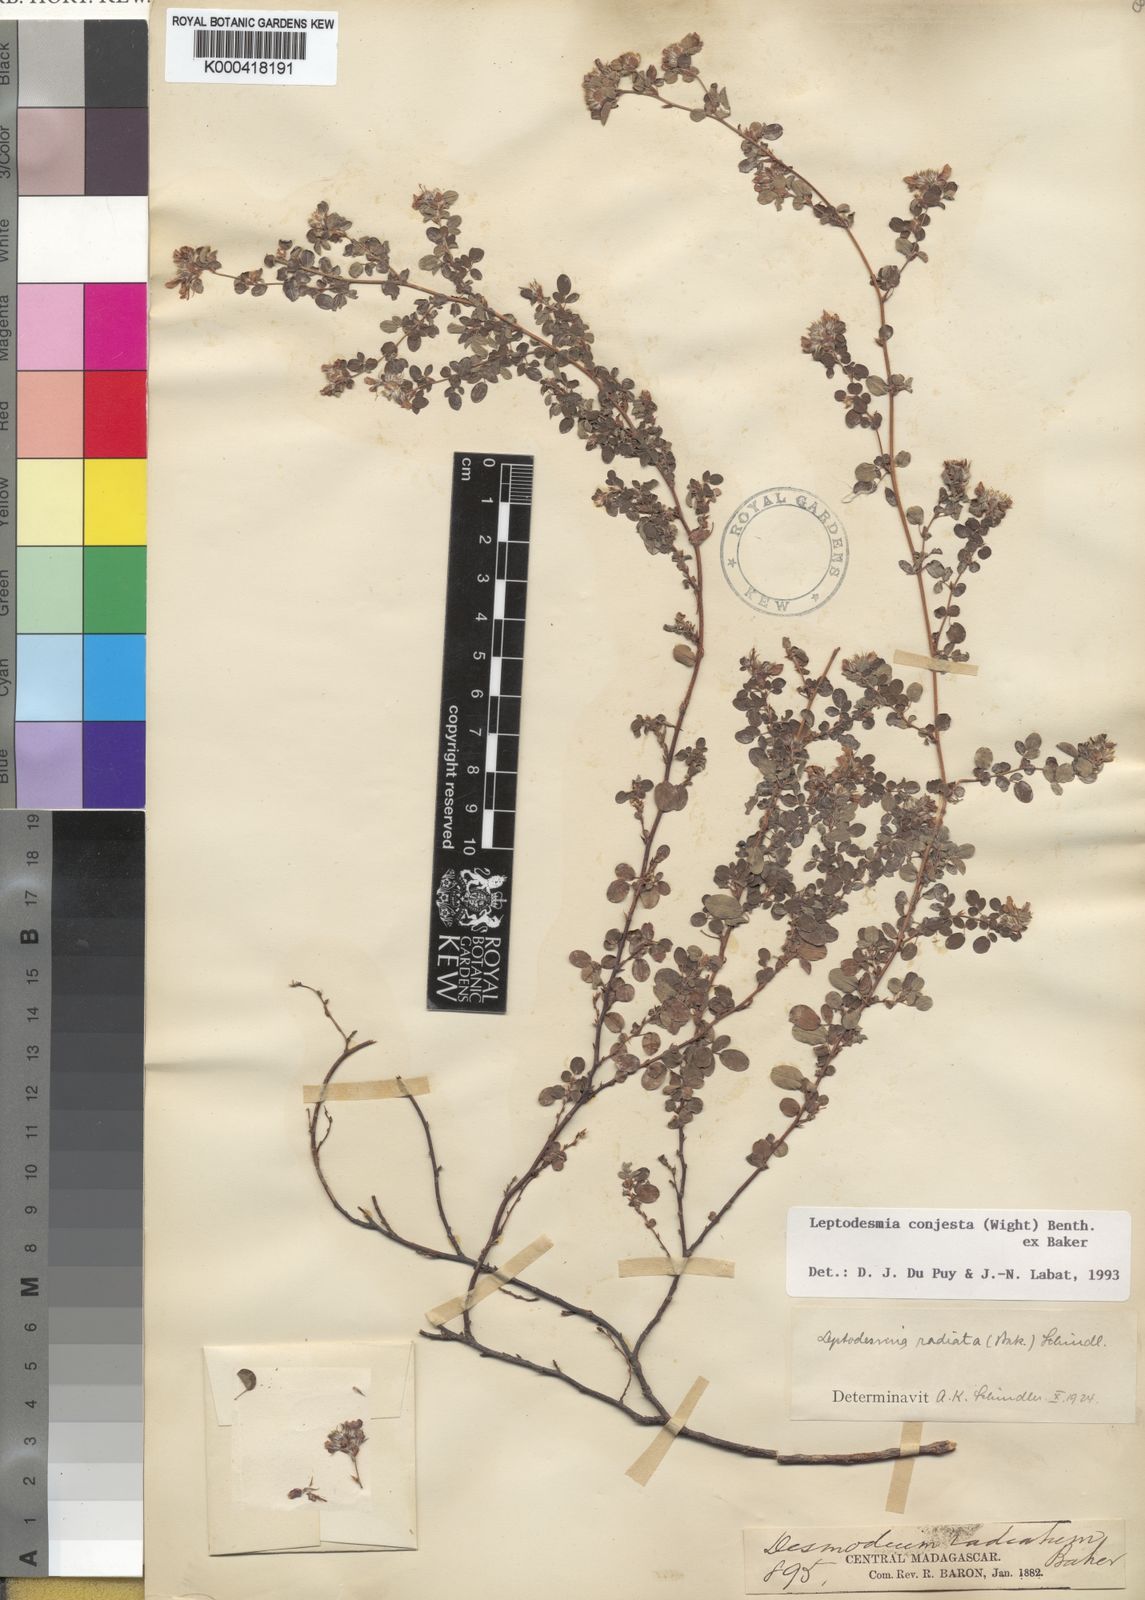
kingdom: Plantae
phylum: Tracheophyta
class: Magnoliopsida
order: Fabales
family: Fabaceae
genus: Leptodesmia
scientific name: Leptodesmia
